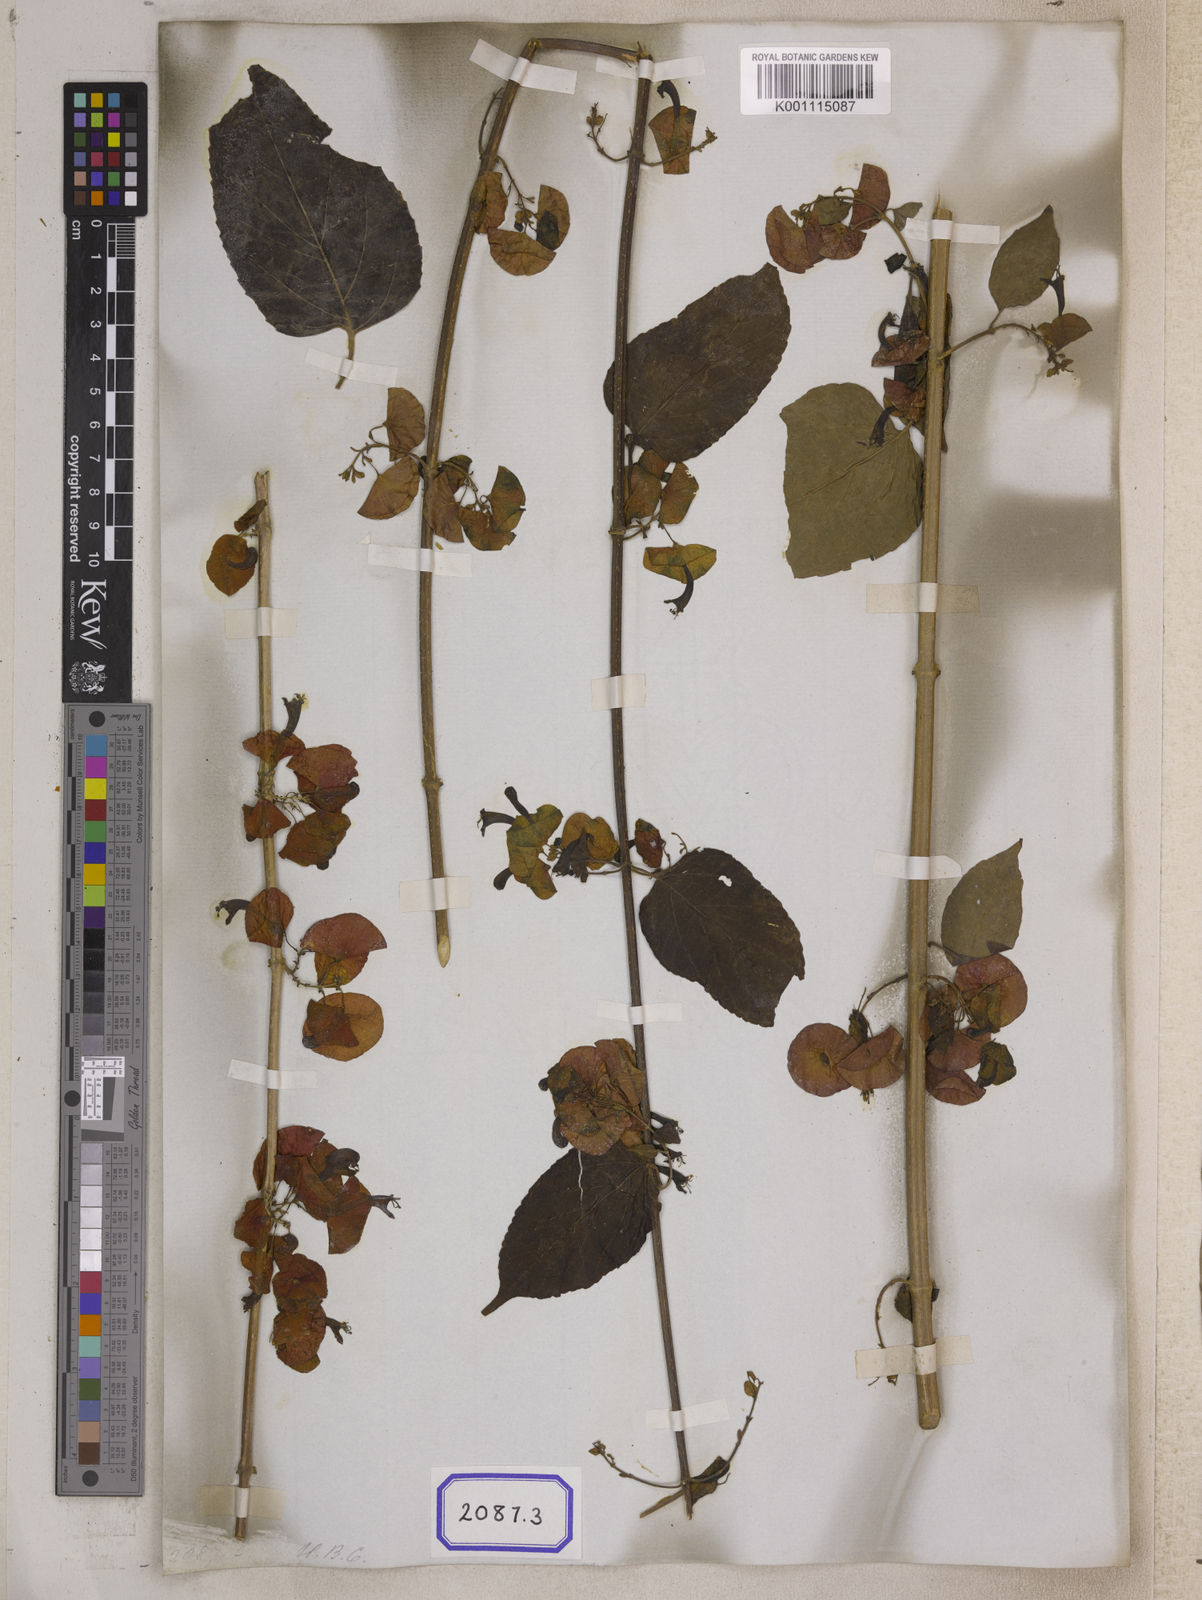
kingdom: Plantae
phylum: Tracheophyta
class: Magnoliopsida
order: Lamiales
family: Lamiaceae
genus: Holmskioldia
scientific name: Holmskioldia sanguinea
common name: Chinese hatplant
